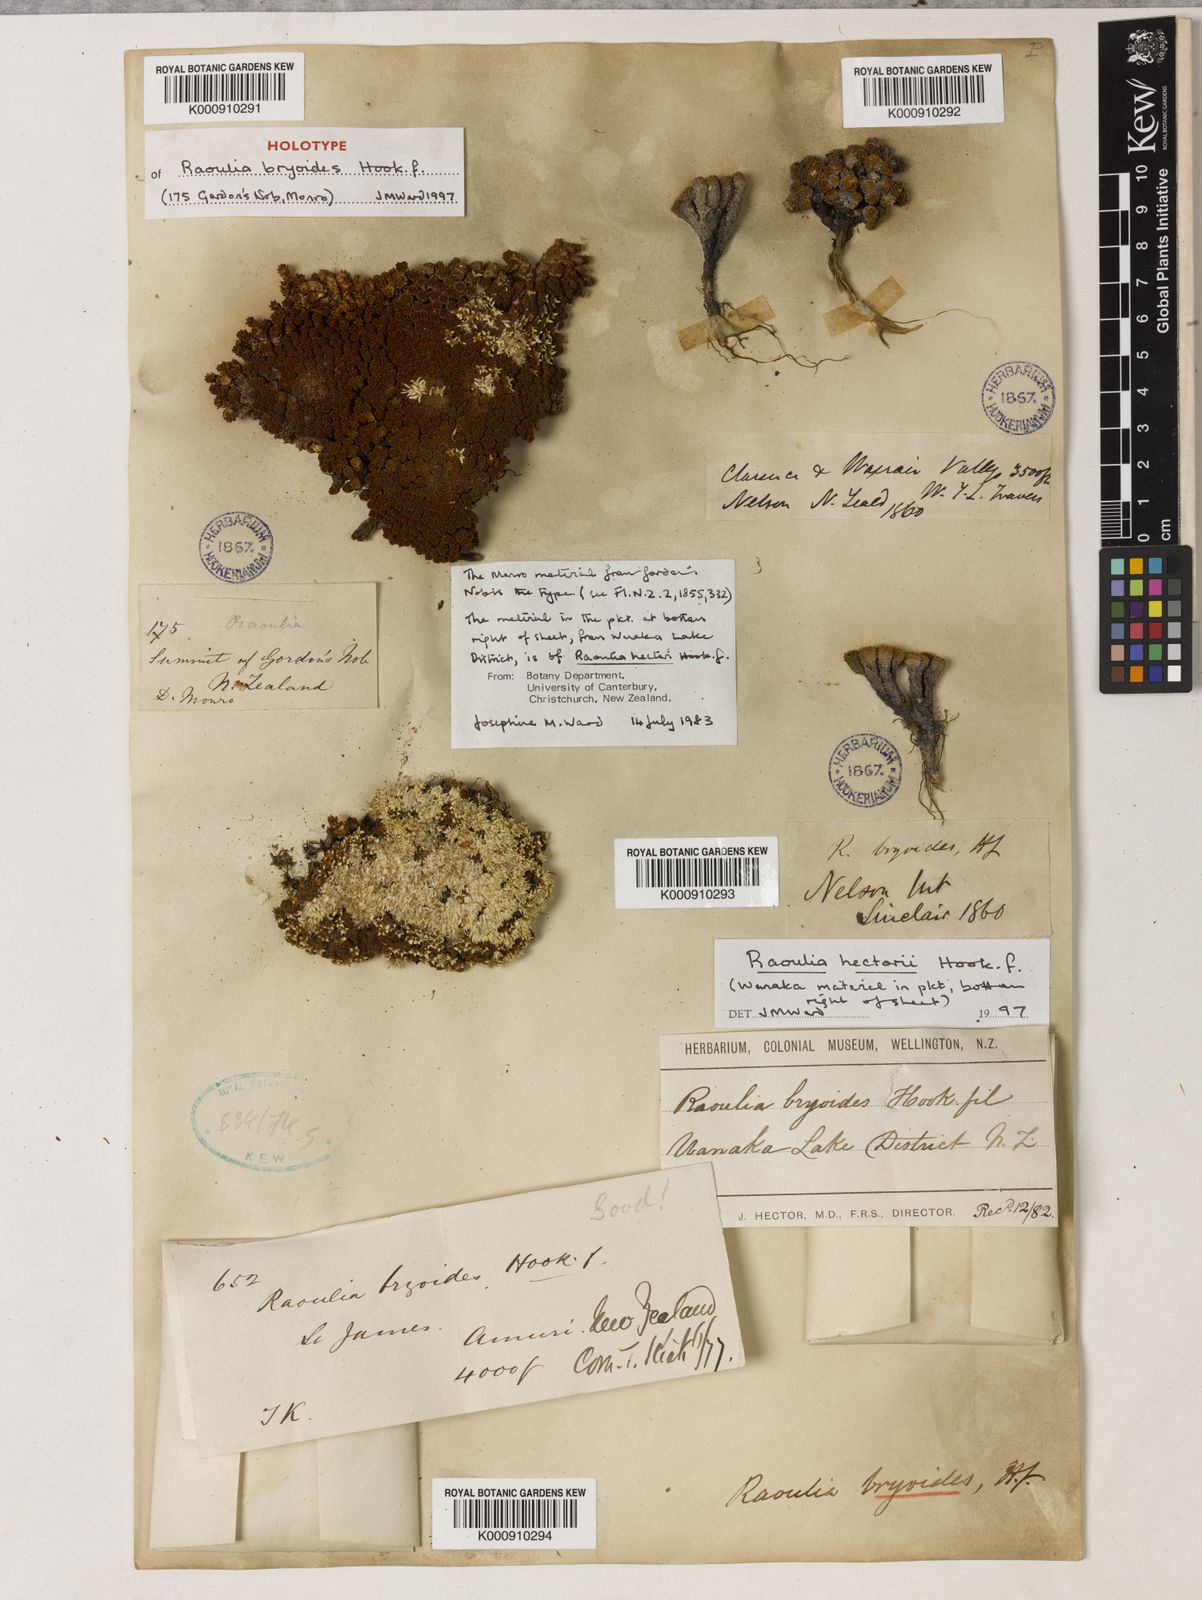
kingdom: Plantae
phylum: Tracheophyta
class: Magnoliopsida
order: Asterales
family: Asteraceae
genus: Raoulia
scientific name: Raoulia bryoides
